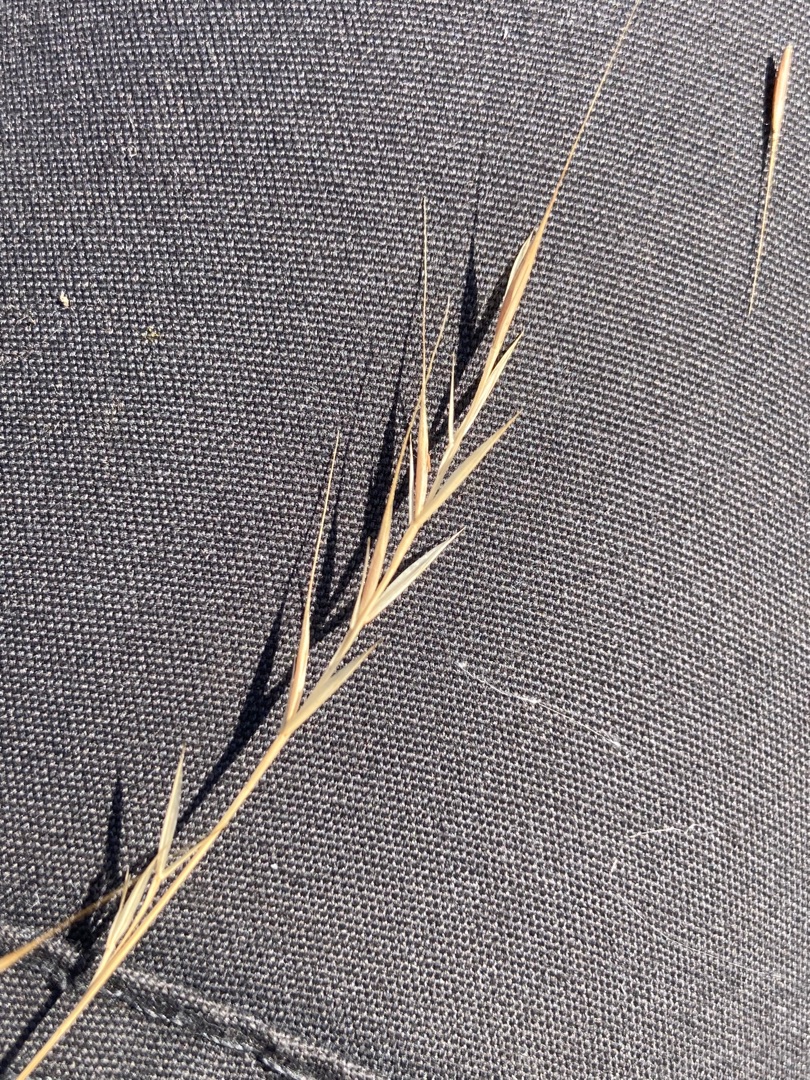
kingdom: Plantae
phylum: Tracheophyta
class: Liliopsida
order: Poales
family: Poaceae
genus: Festuca
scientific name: Festuca bromoides
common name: Langstakket væselhale
